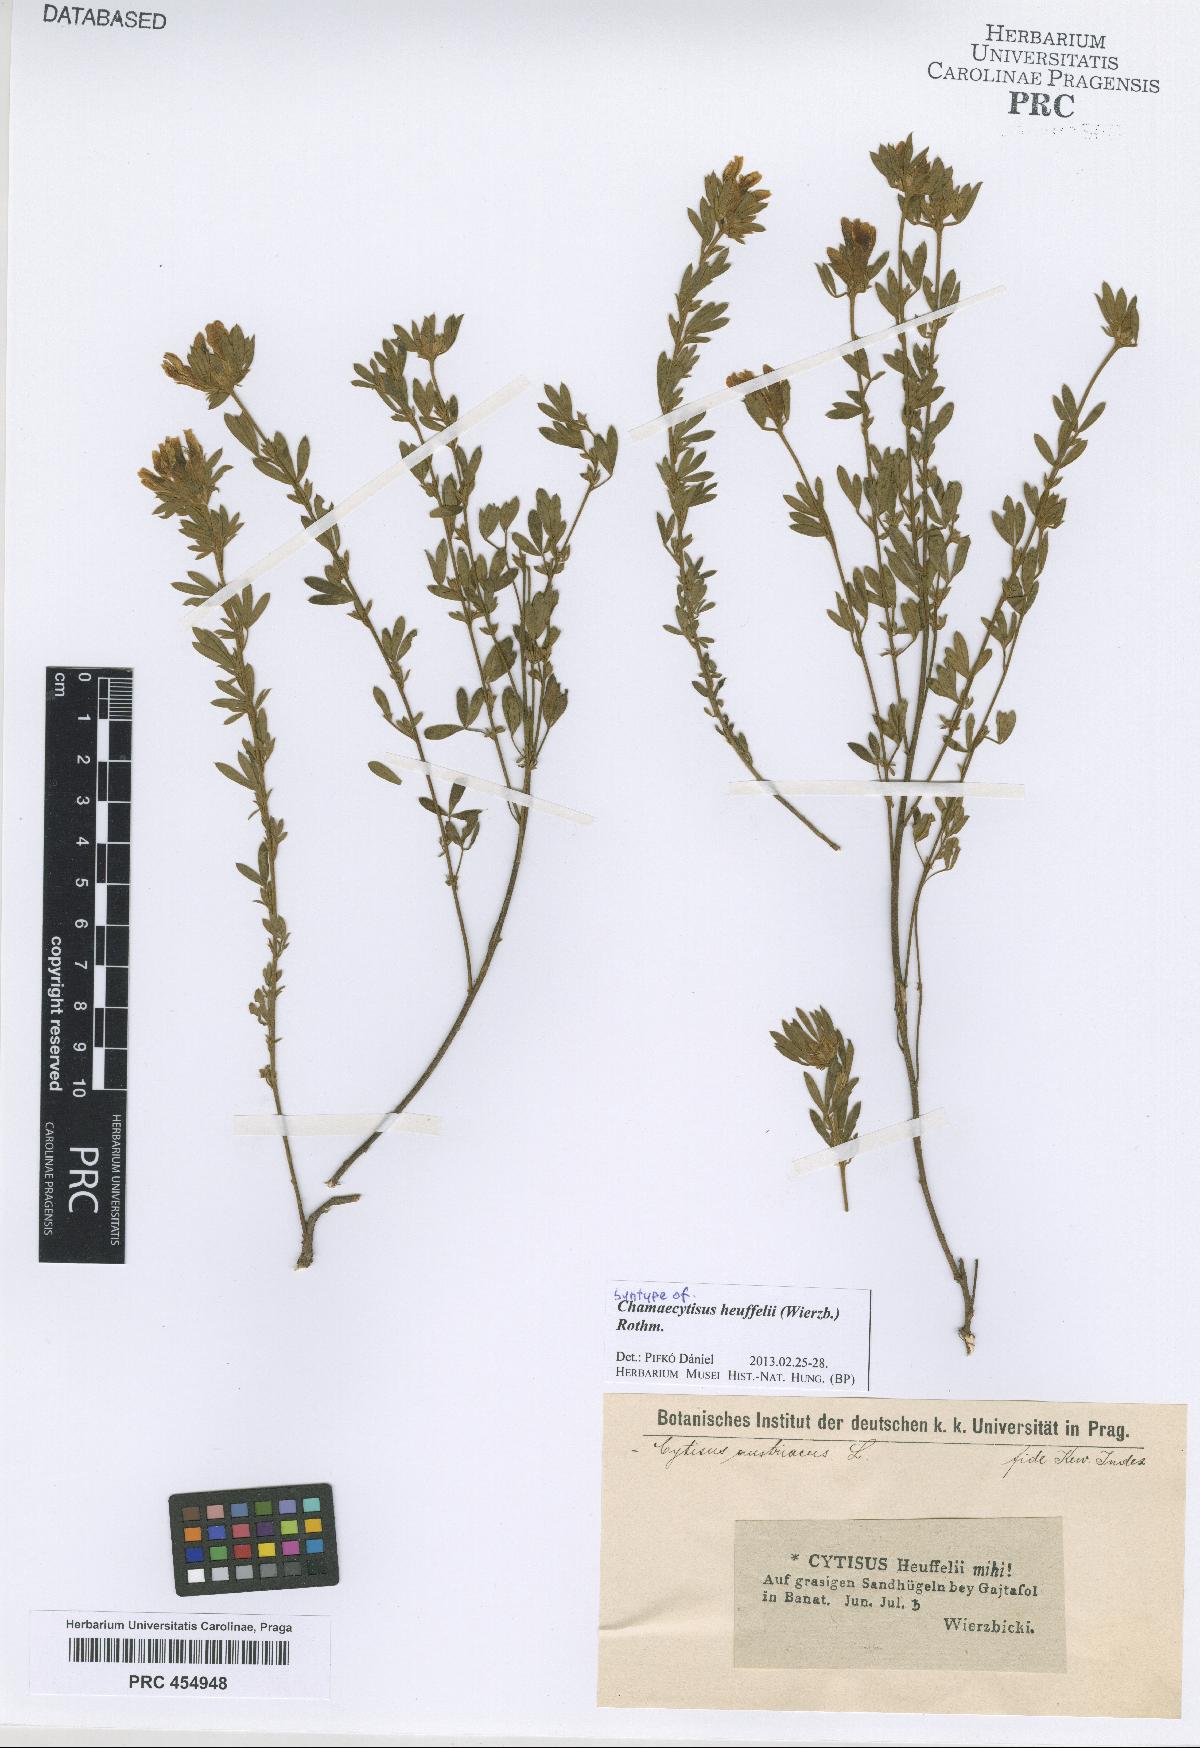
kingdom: Plantae
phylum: Tracheophyta
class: Magnoliopsida
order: Fabales
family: Fabaceae
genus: Cytisophyllum
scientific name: Cytisophyllum Cytisus heuffelii
